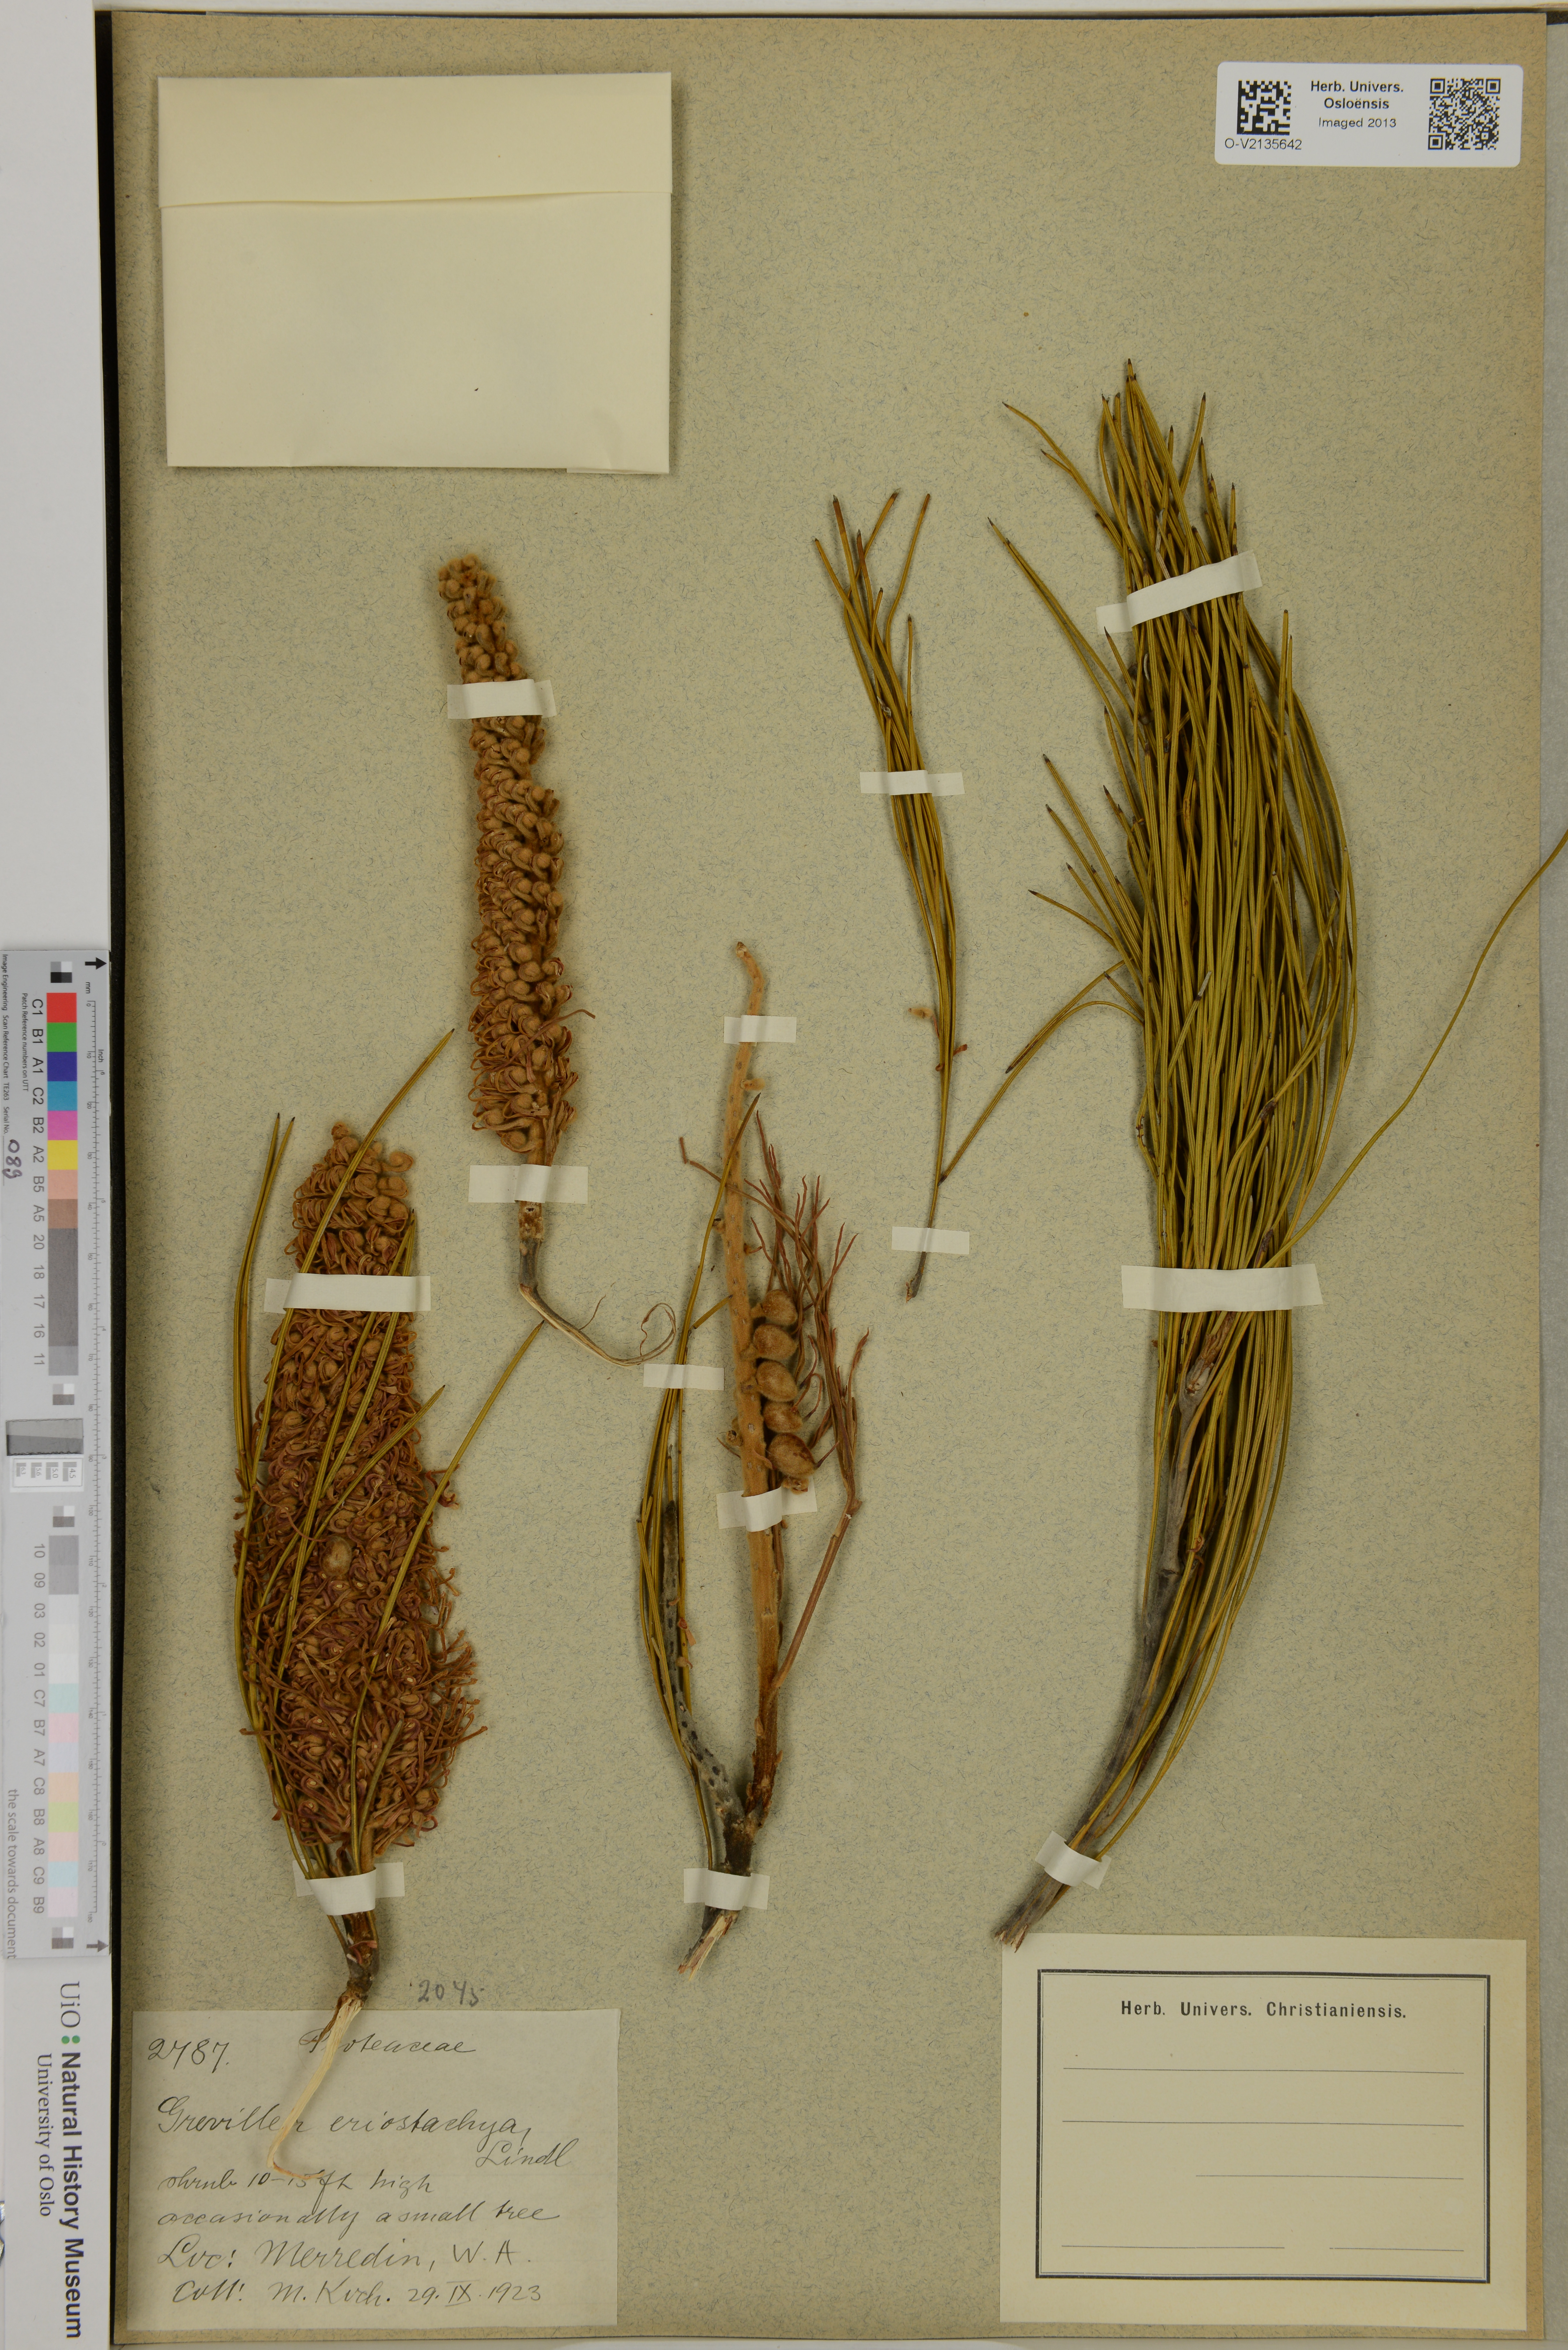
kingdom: Plantae
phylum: Tracheophyta
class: Magnoliopsida
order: Proteales
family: Proteaceae
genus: Grevillea
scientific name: Grevillea eriostachya
